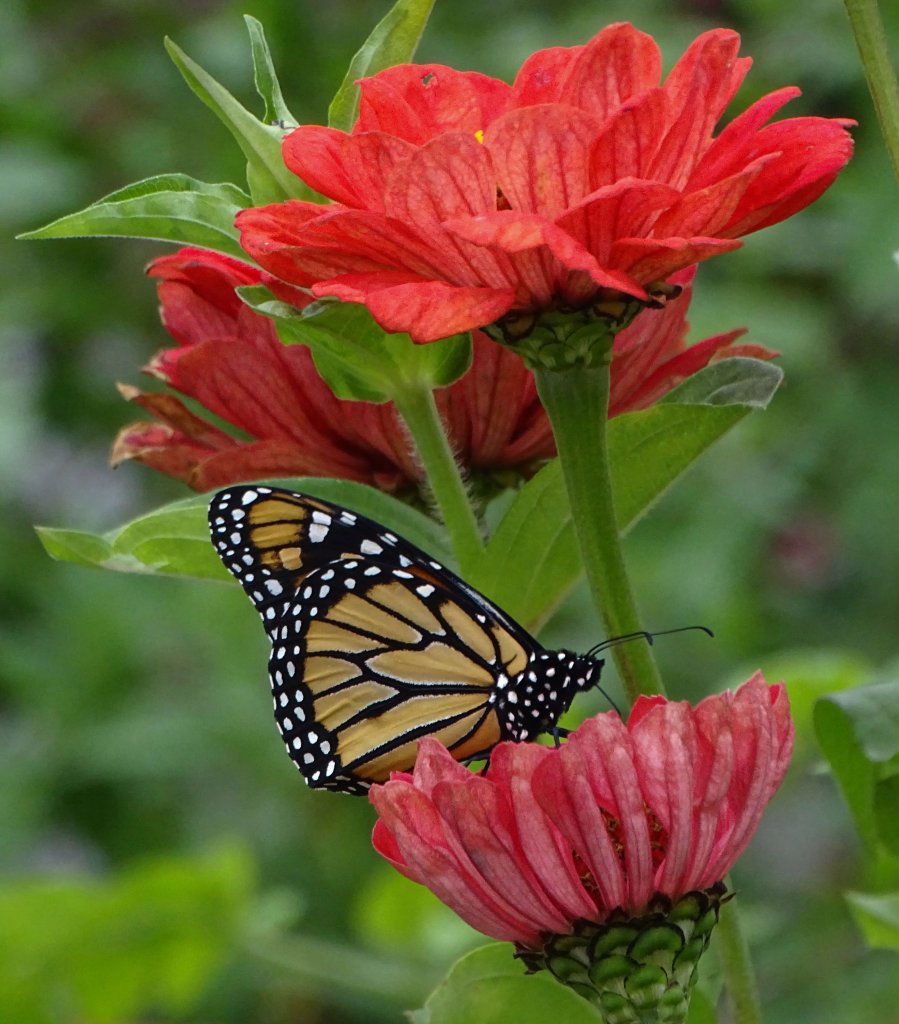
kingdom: Animalia
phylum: Arthropoda
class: Insecta
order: Lepidoptera
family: Nymphalidae
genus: Danaus
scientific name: Danaus plexippus
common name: Monarch
